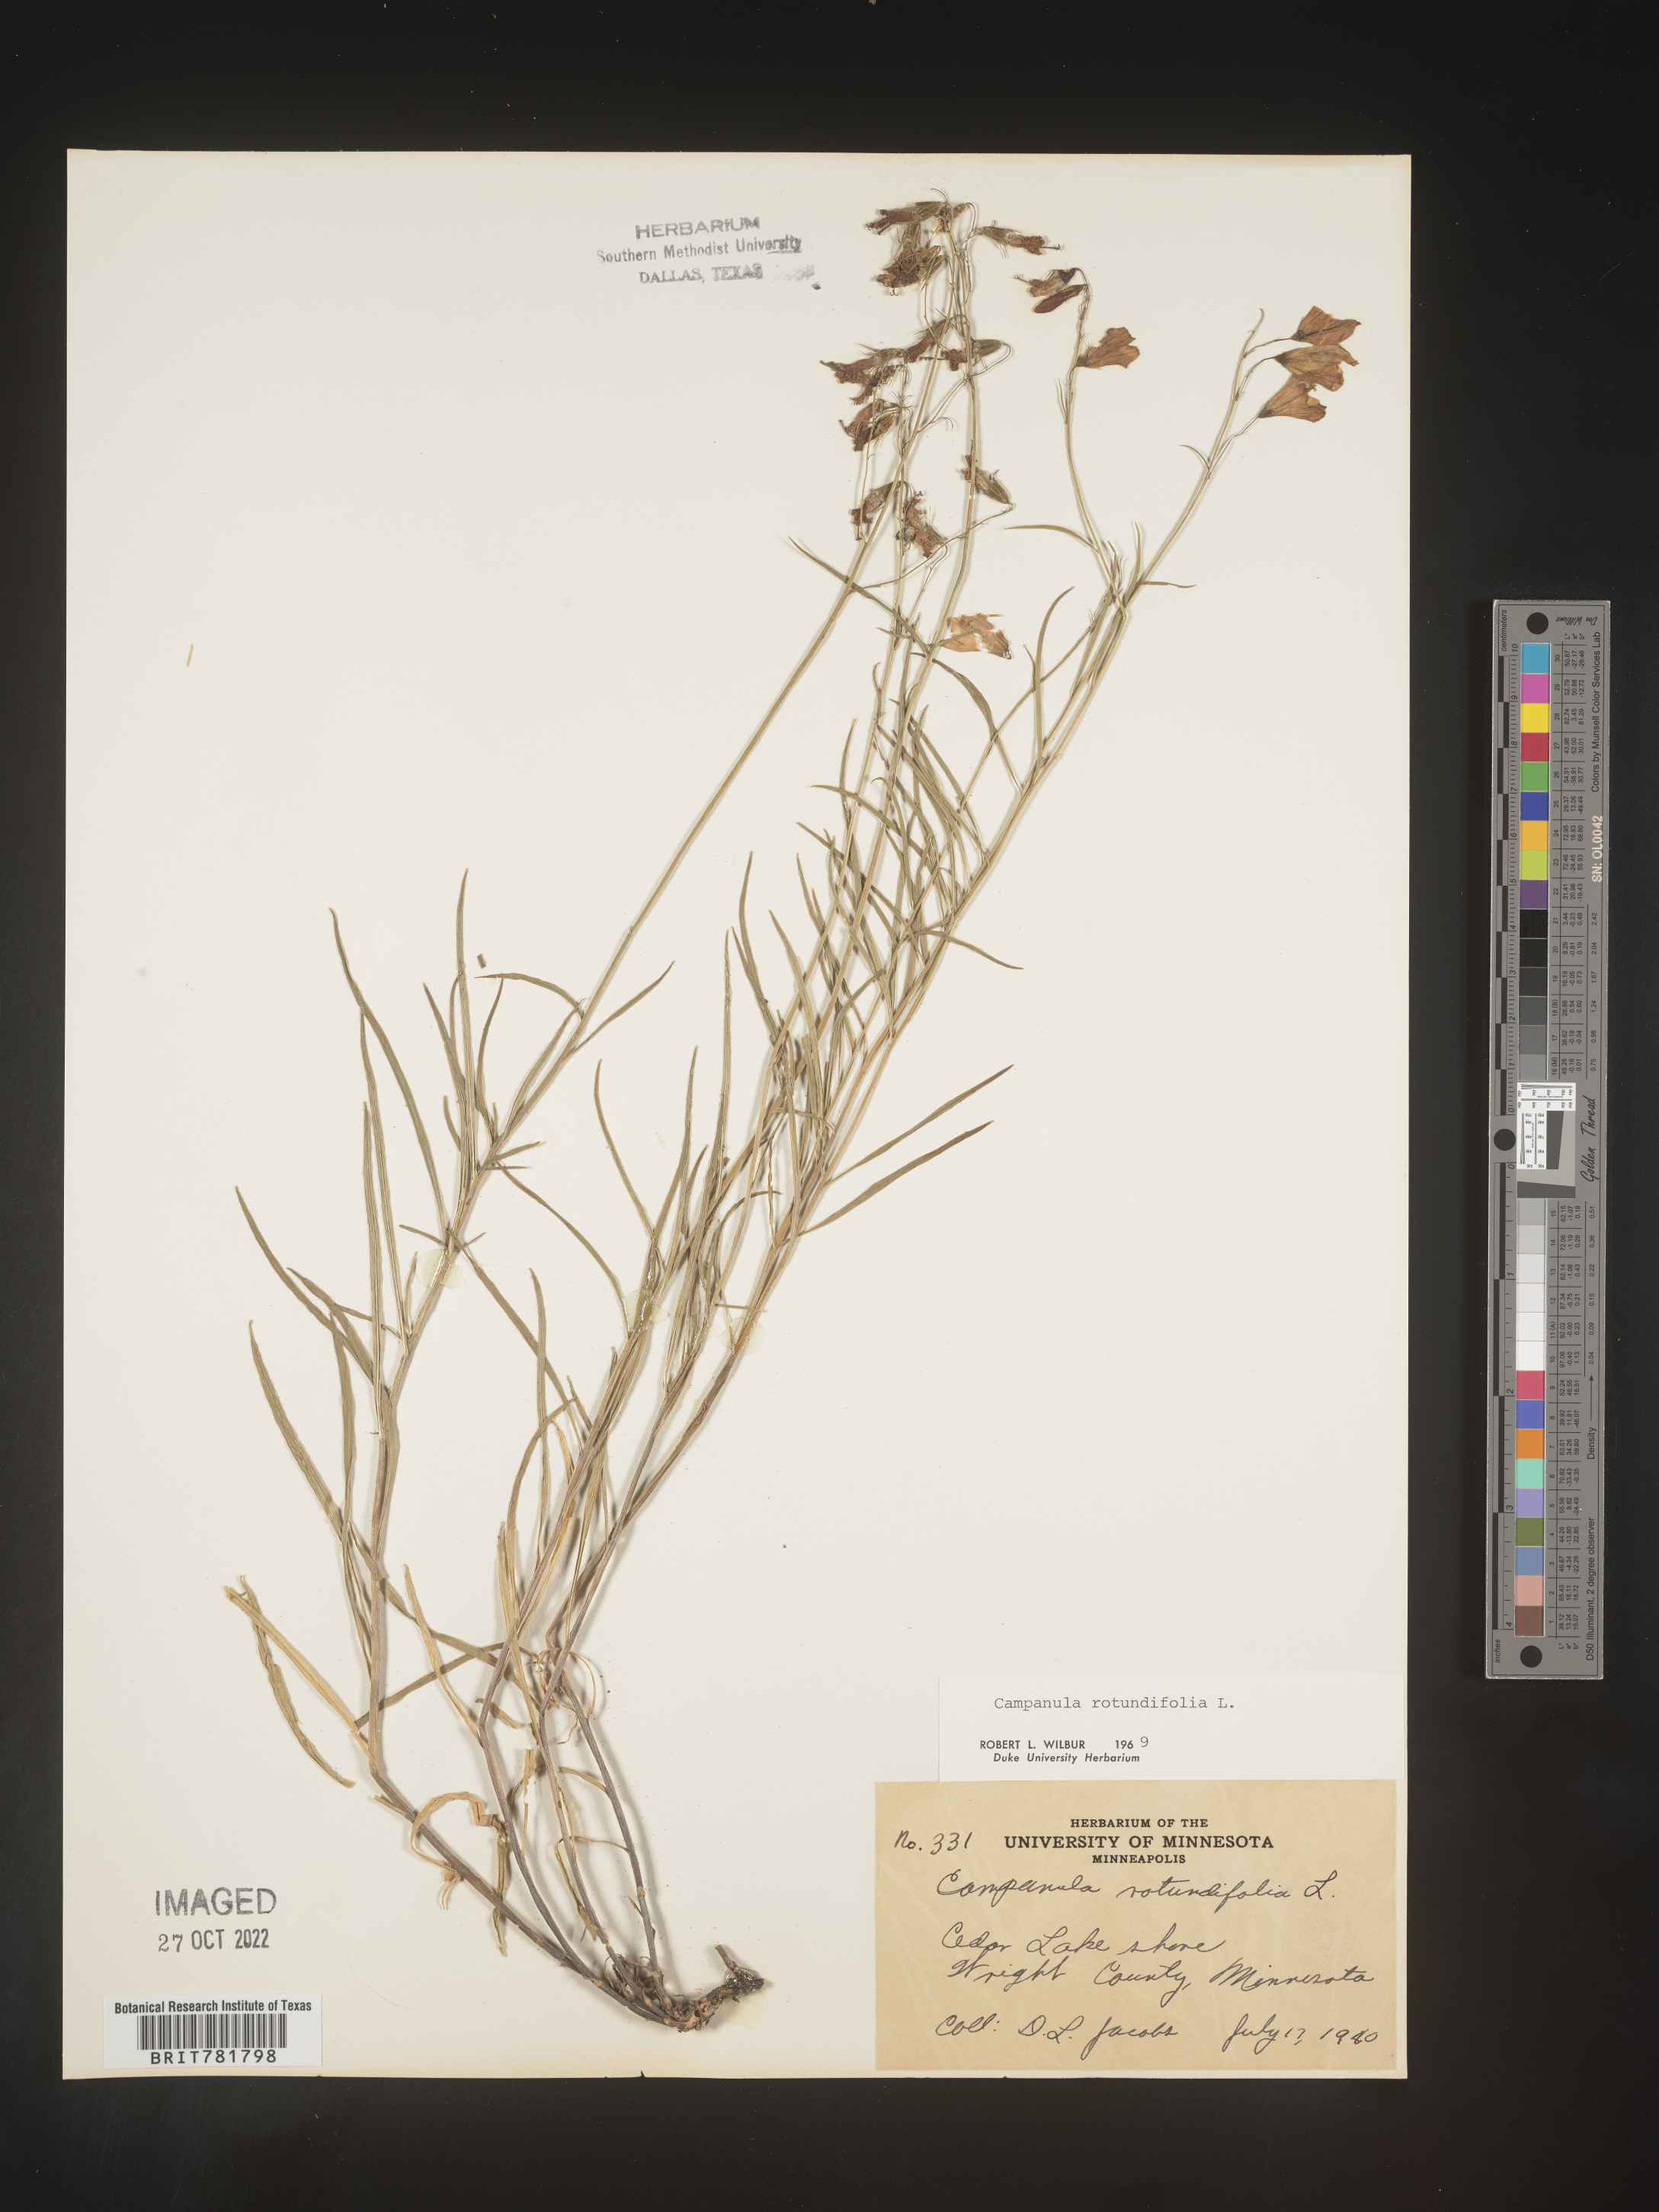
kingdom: Plantae
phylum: Tracheophyta
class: Magnoliopsida
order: Asterales
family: Campanulaceae
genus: Campanula
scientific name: Campanula rotundifolia
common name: Harebell
